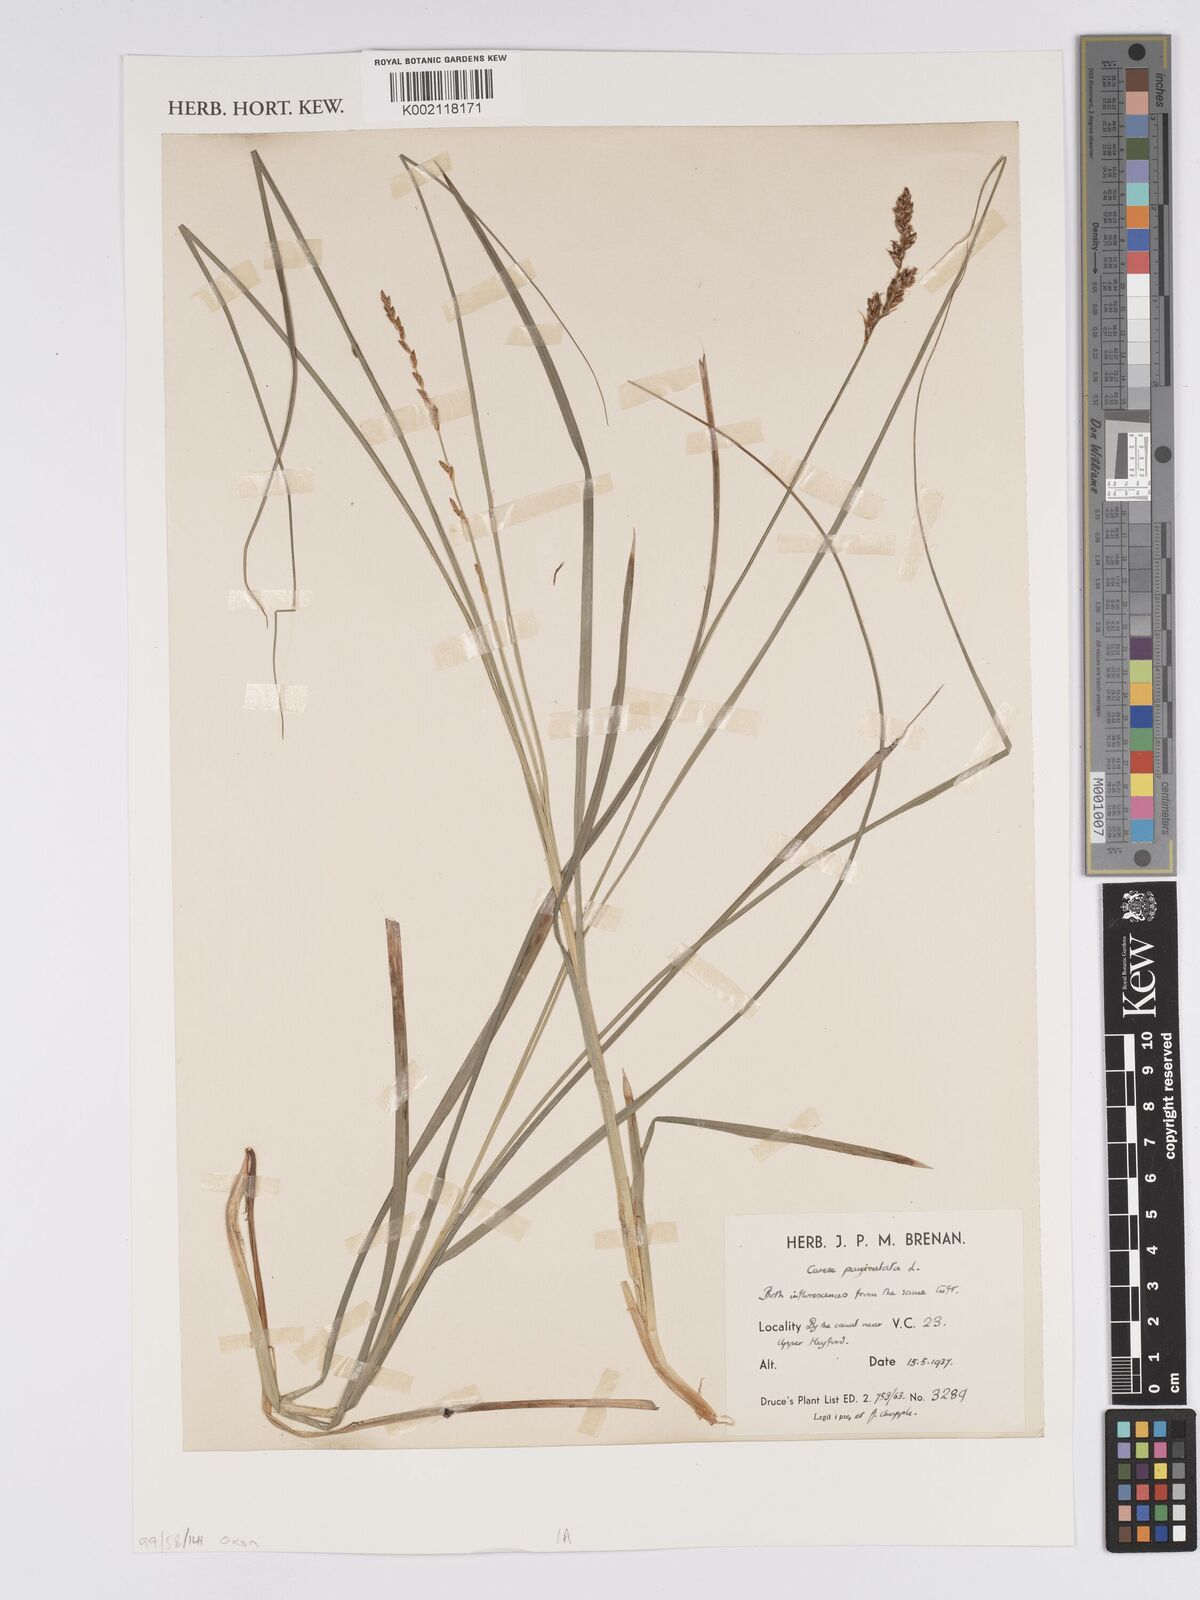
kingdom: Plantae
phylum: Tracheophyta
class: Liliopsida
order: Poales
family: Cyperaceae
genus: Carex
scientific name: Carex paniculata
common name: Greater tussock-sedge
